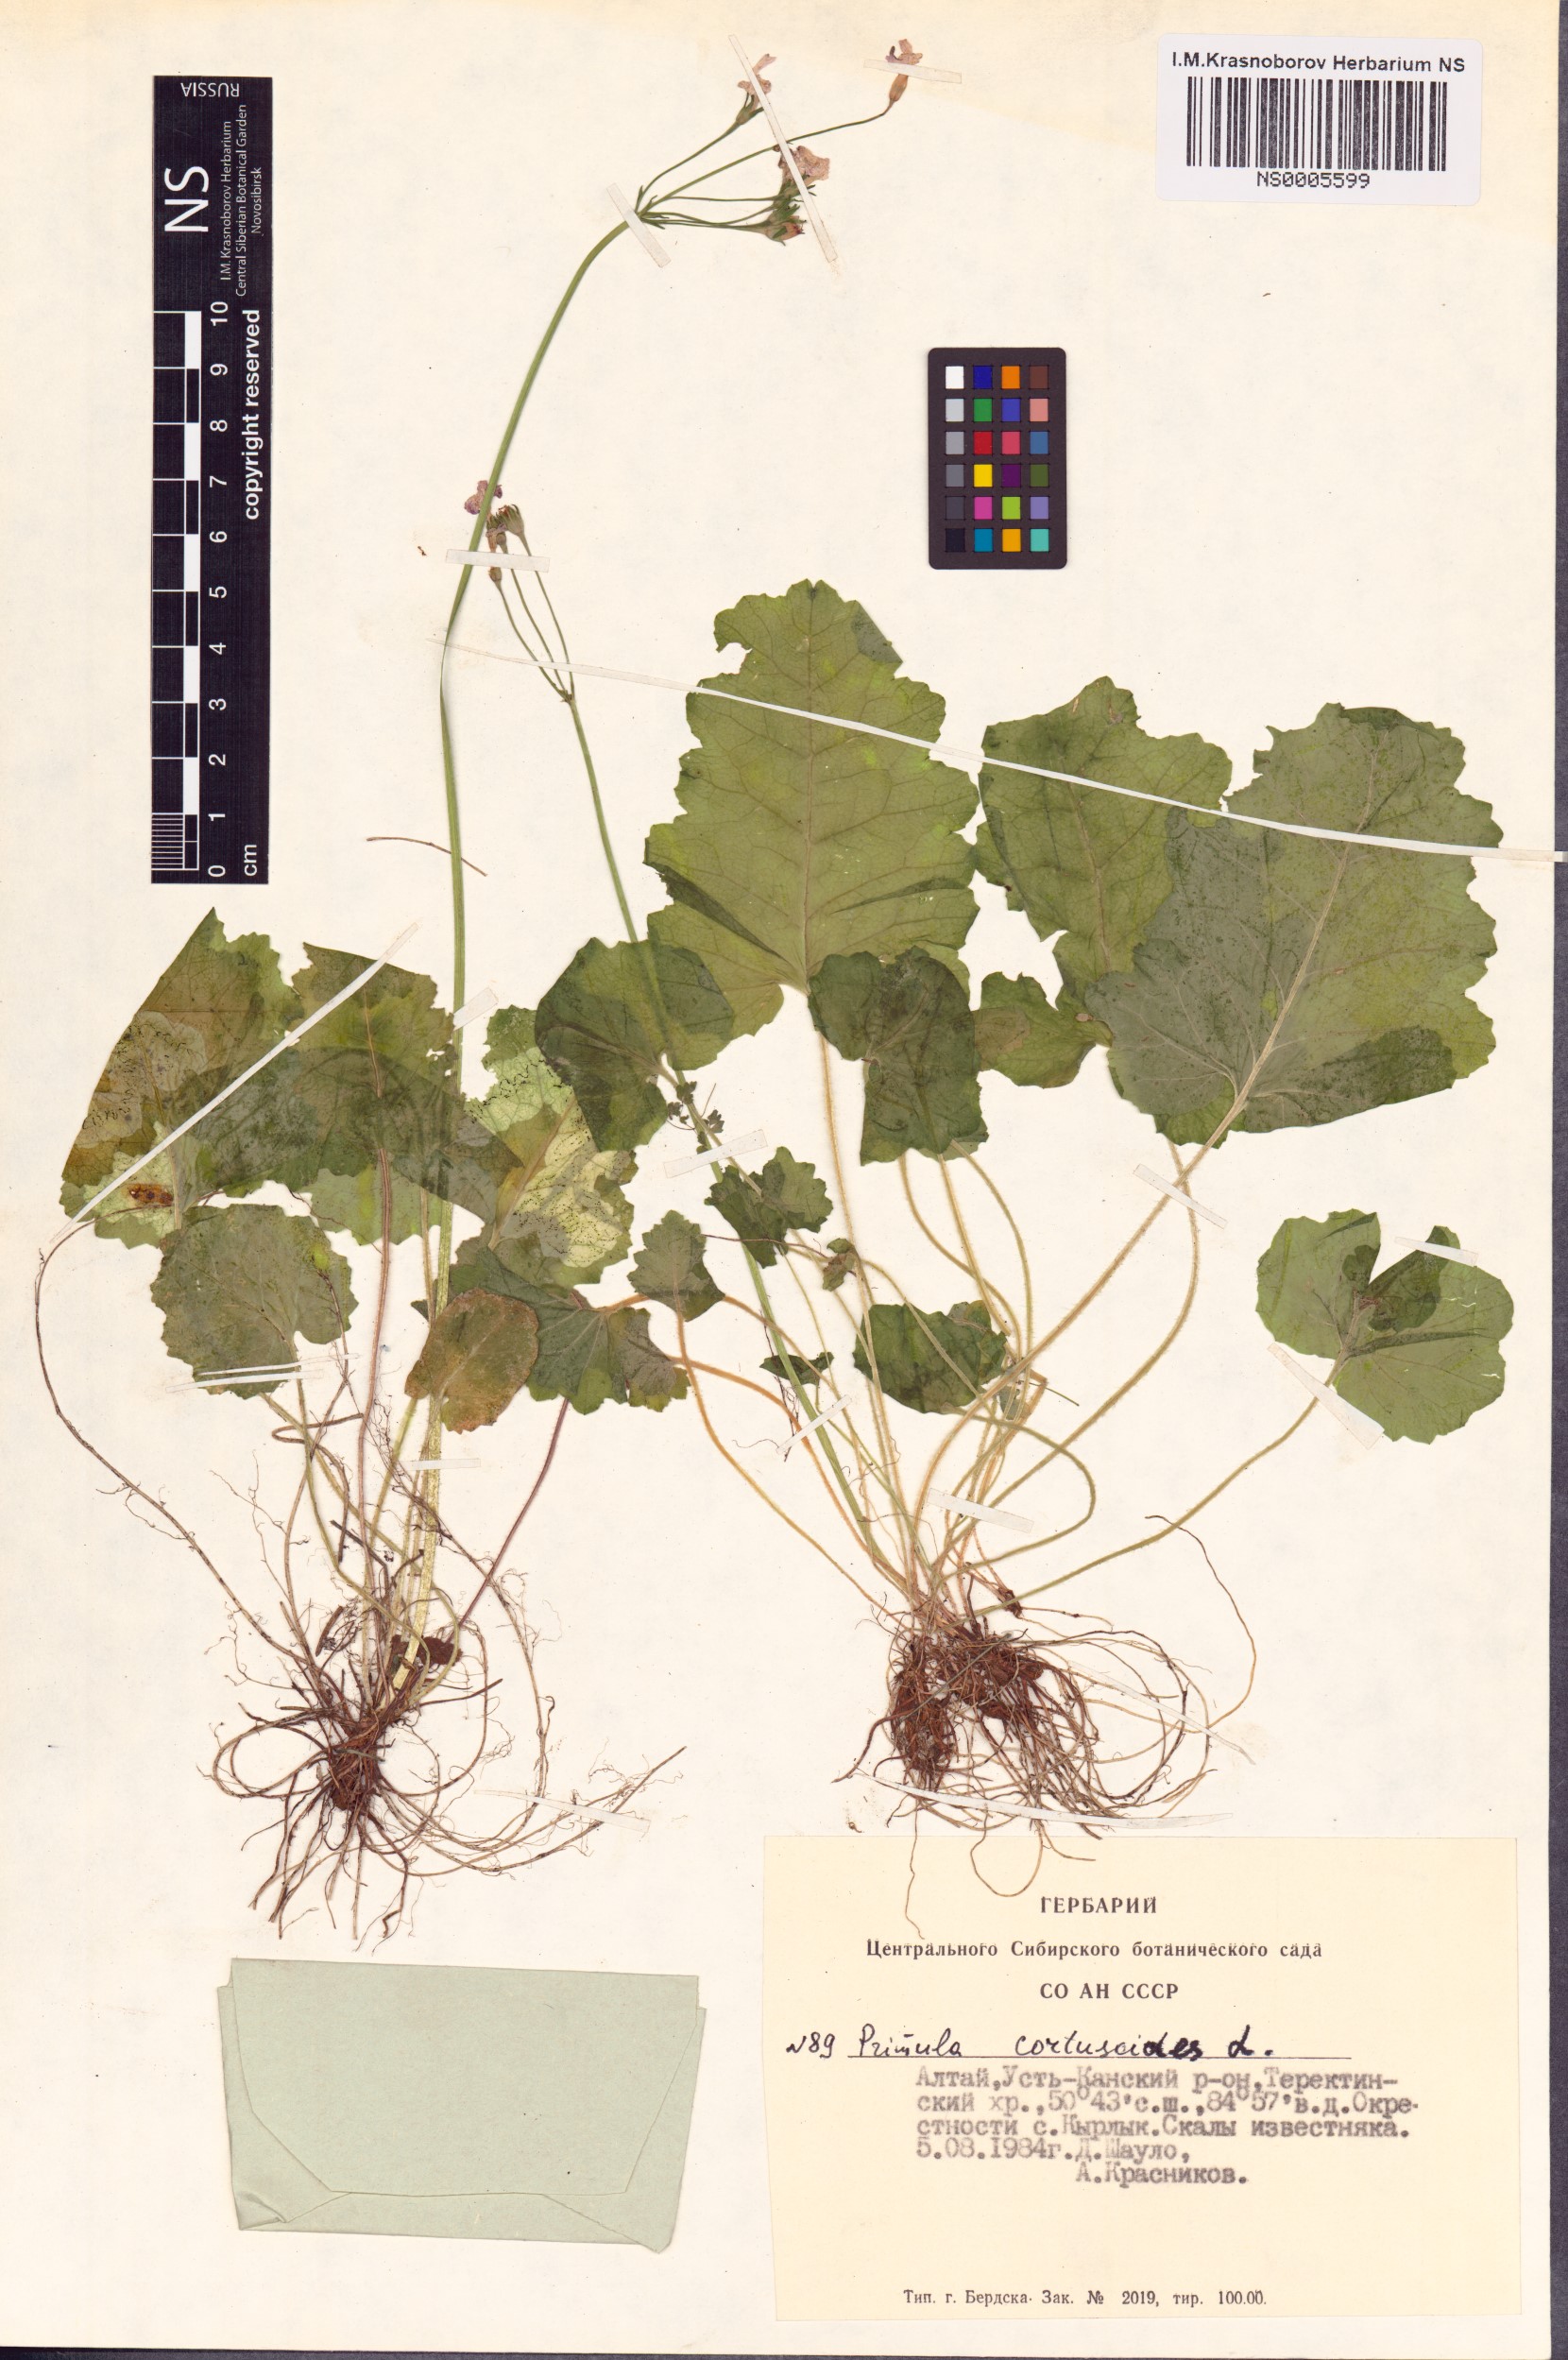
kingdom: Plantae
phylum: Tracheophyta
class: Magnoliopsida
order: Ericales
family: Primulaceae
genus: Primula
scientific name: Primula cortusoides
